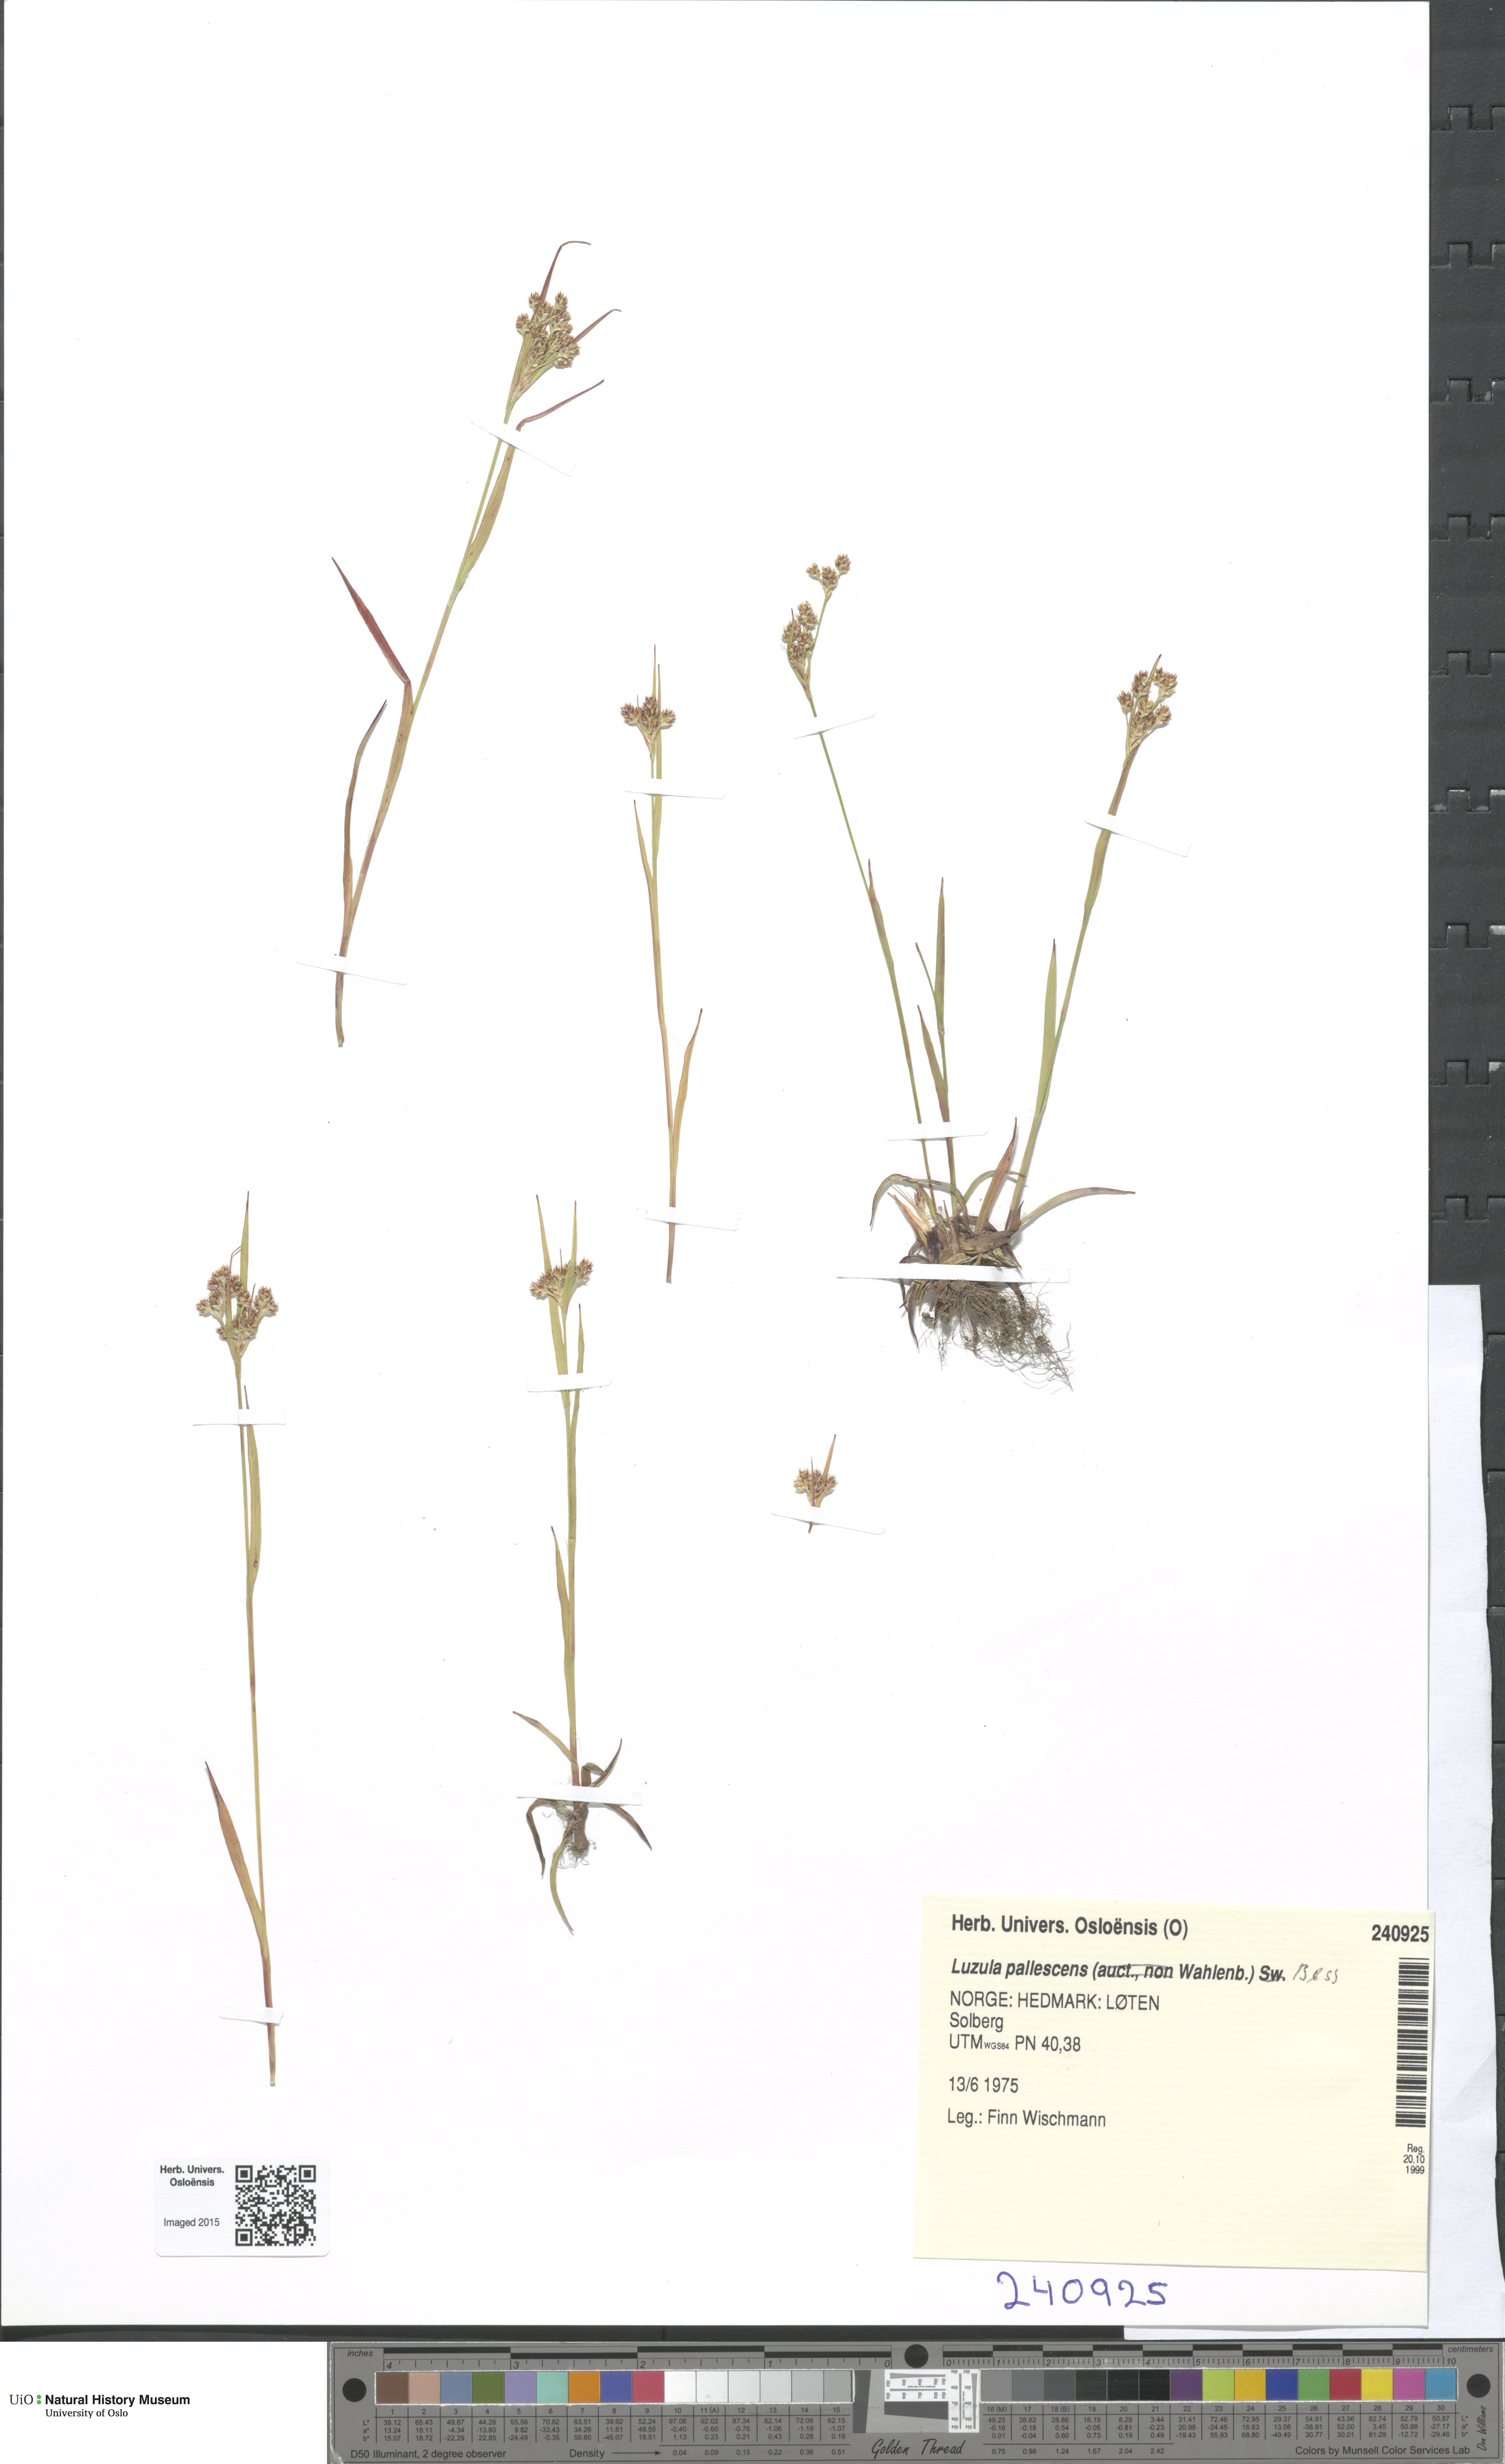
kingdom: Plantae
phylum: Tracheophyta
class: Liliopsida
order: Poales
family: Juncaceae
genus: Luzula
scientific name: Luzula pallescens
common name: Fen wood-rush
